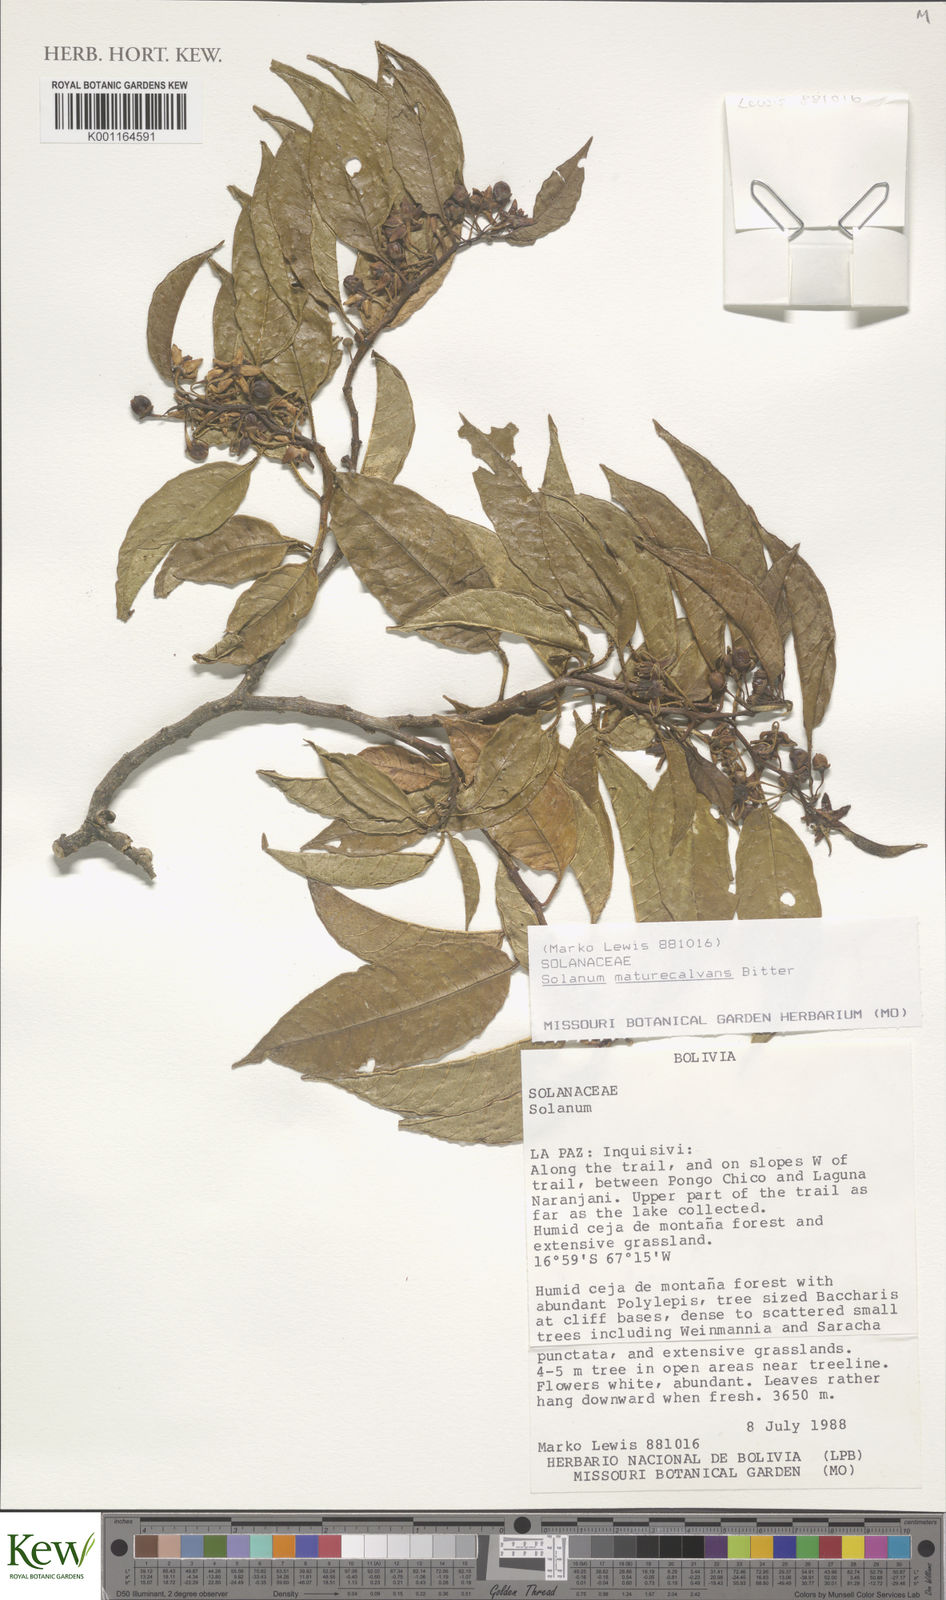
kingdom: Plantae
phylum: Tracheophyta
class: Magnoliopsida
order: Solanales
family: Solanaceae
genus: Solanum
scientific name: Solanum maturecalvans
